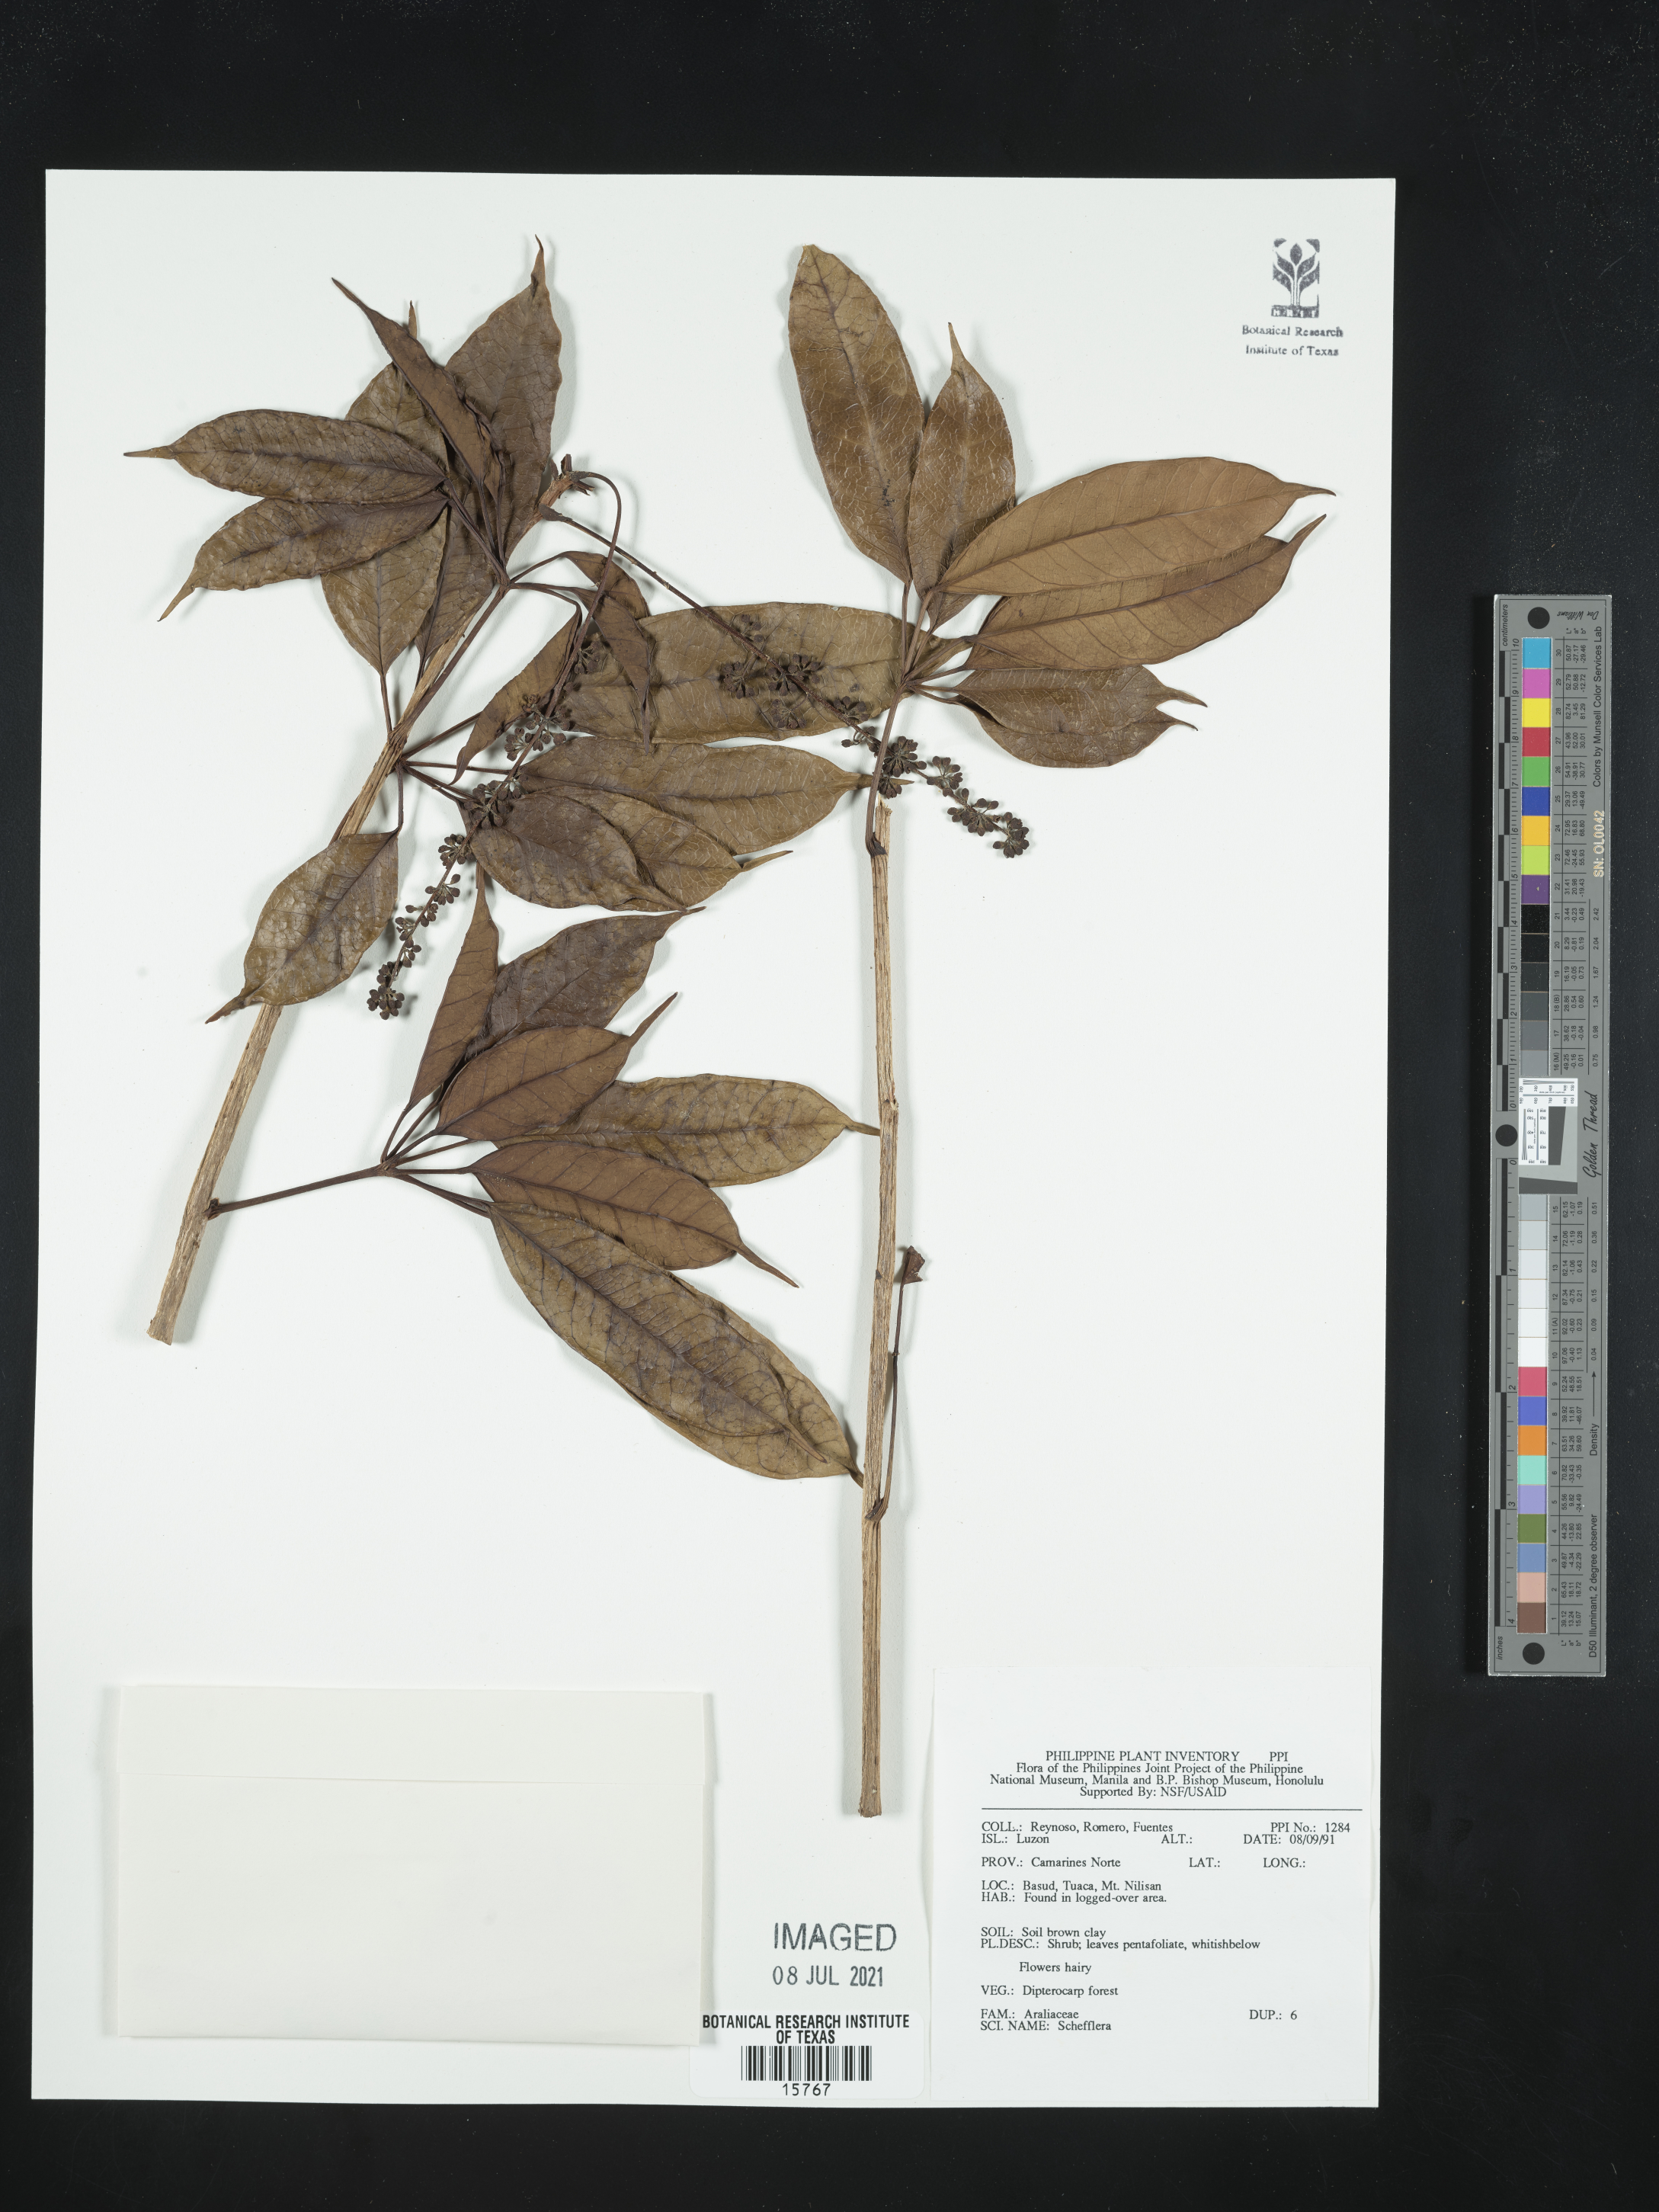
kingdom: Plantae
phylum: Tracheophyta
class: Magnoliopsida
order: Apiales
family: Araliaceae
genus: Schefflera
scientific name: Schefflera
